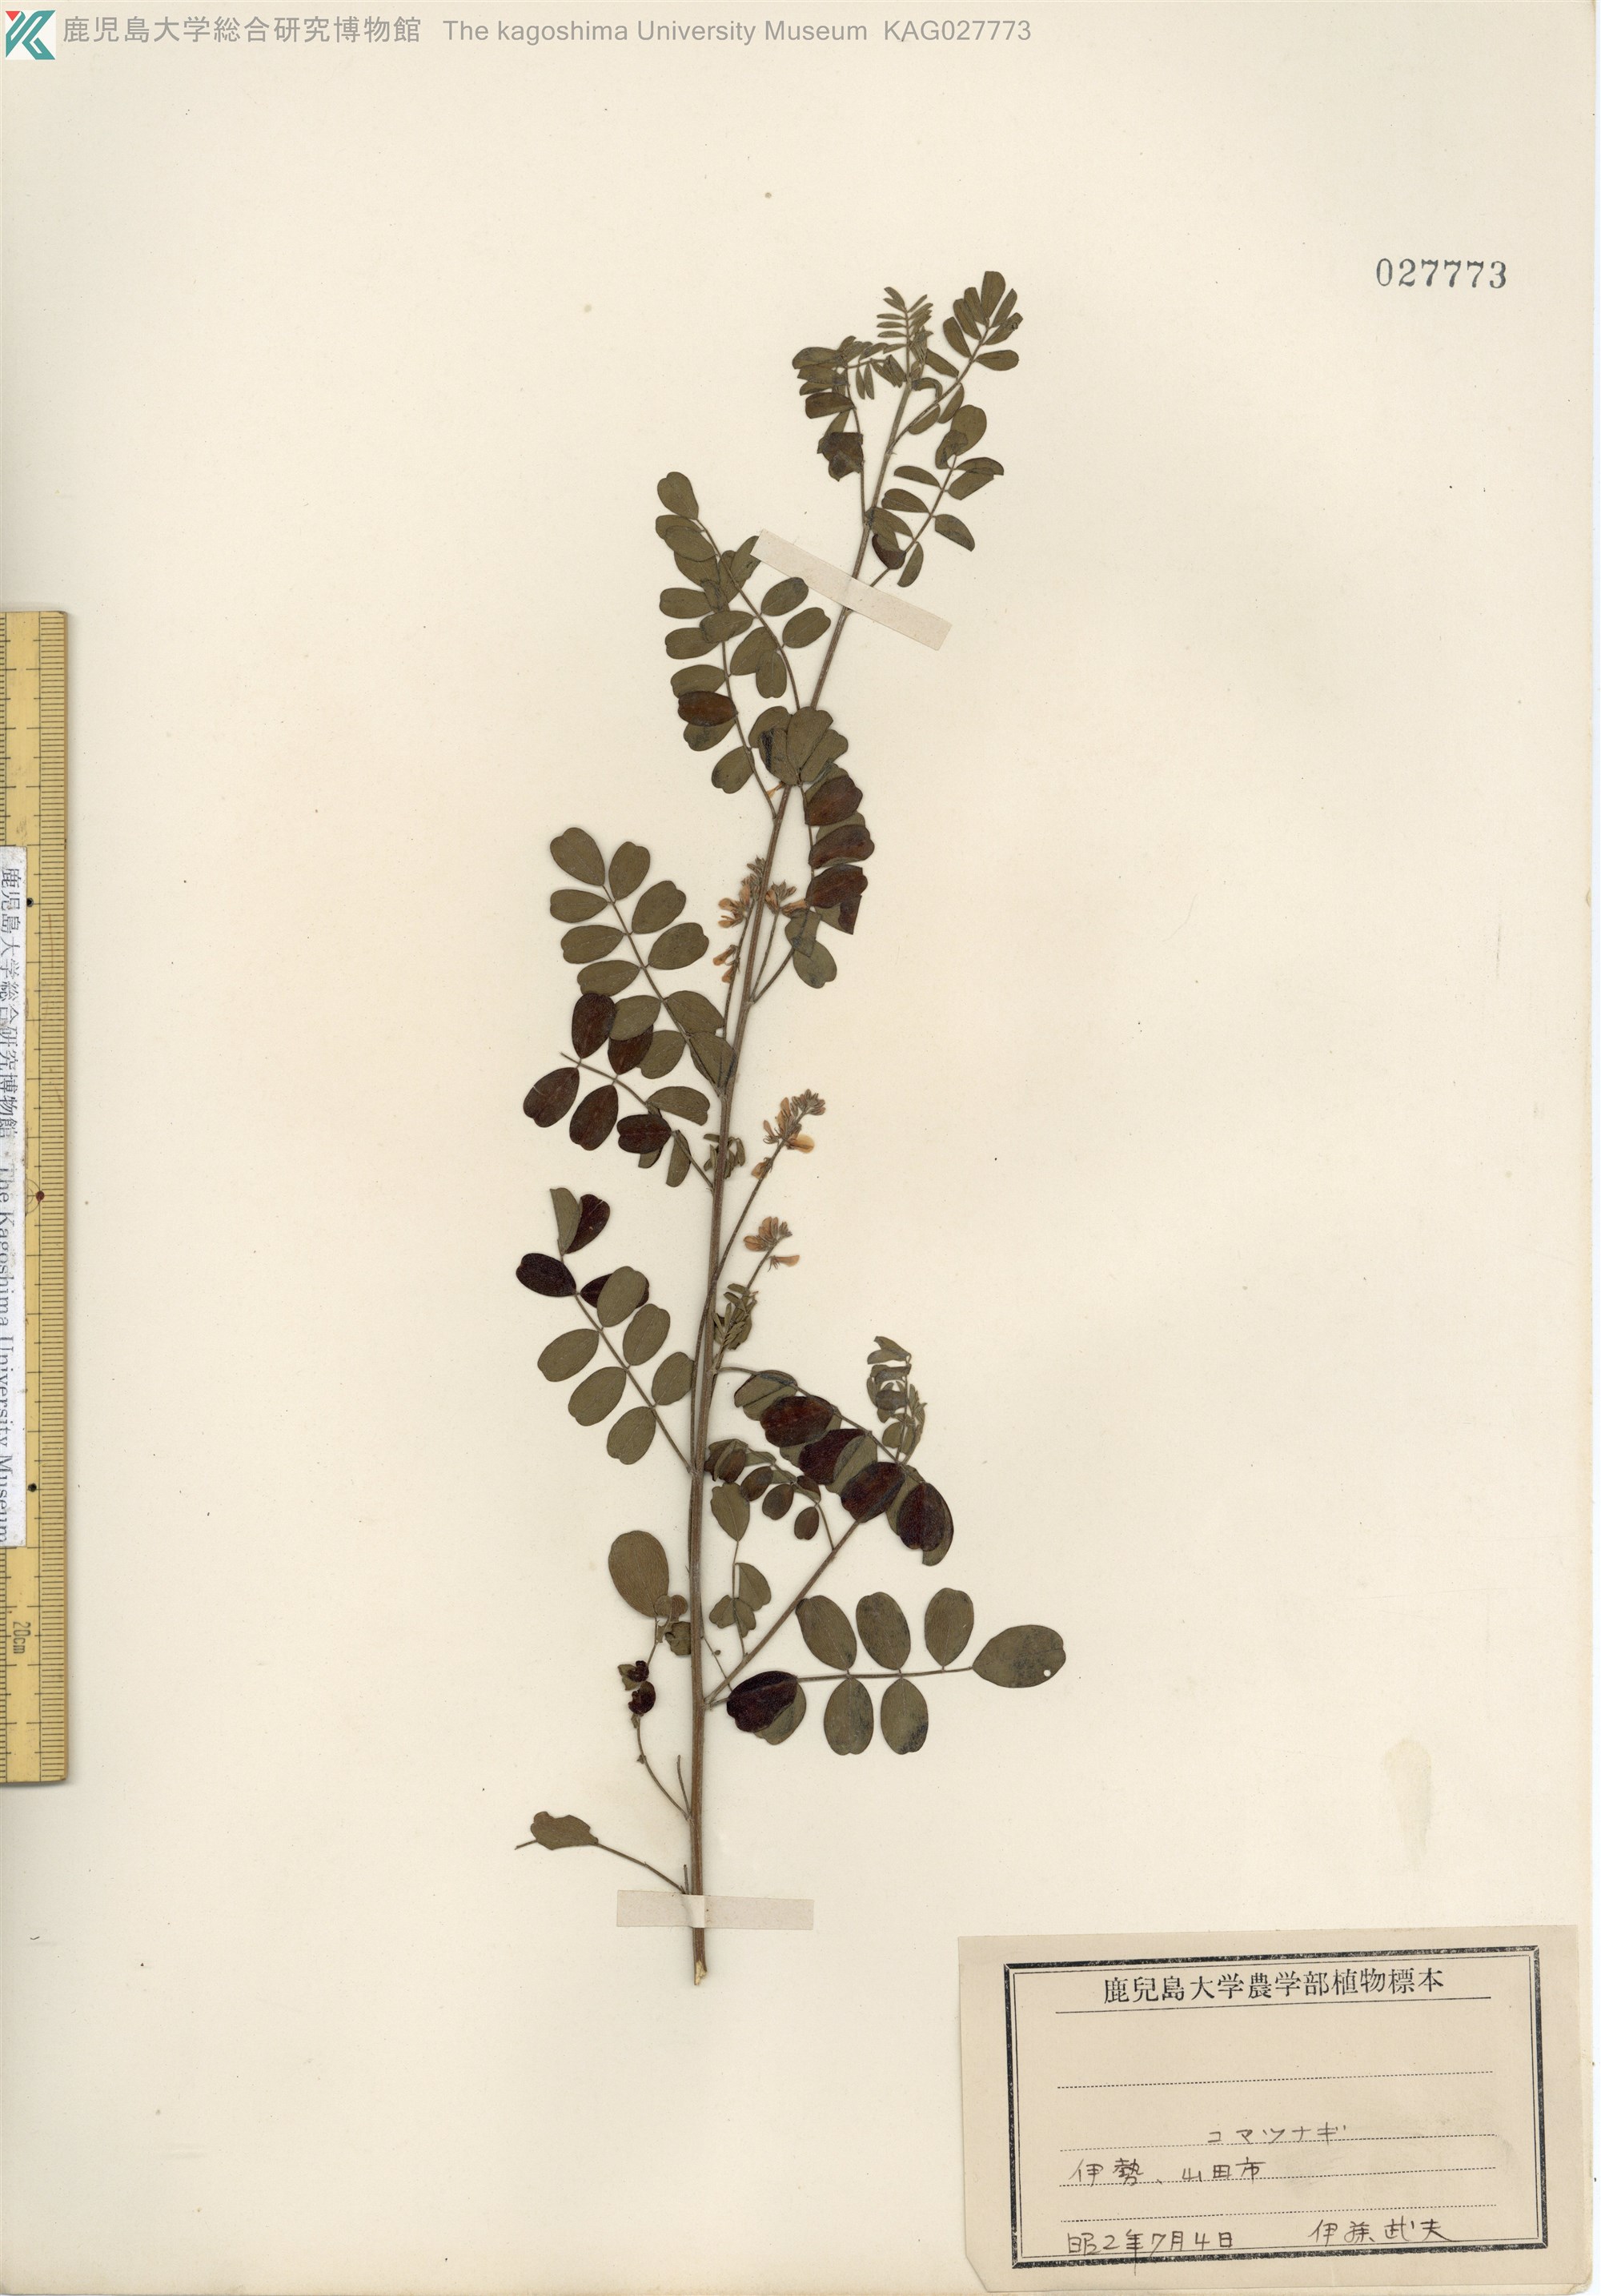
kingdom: Plantae
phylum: Tracheophyta
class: Magnoliopsida
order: Fabales
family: Fabaceae
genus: Indigofera
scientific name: Indigofera bungeana
